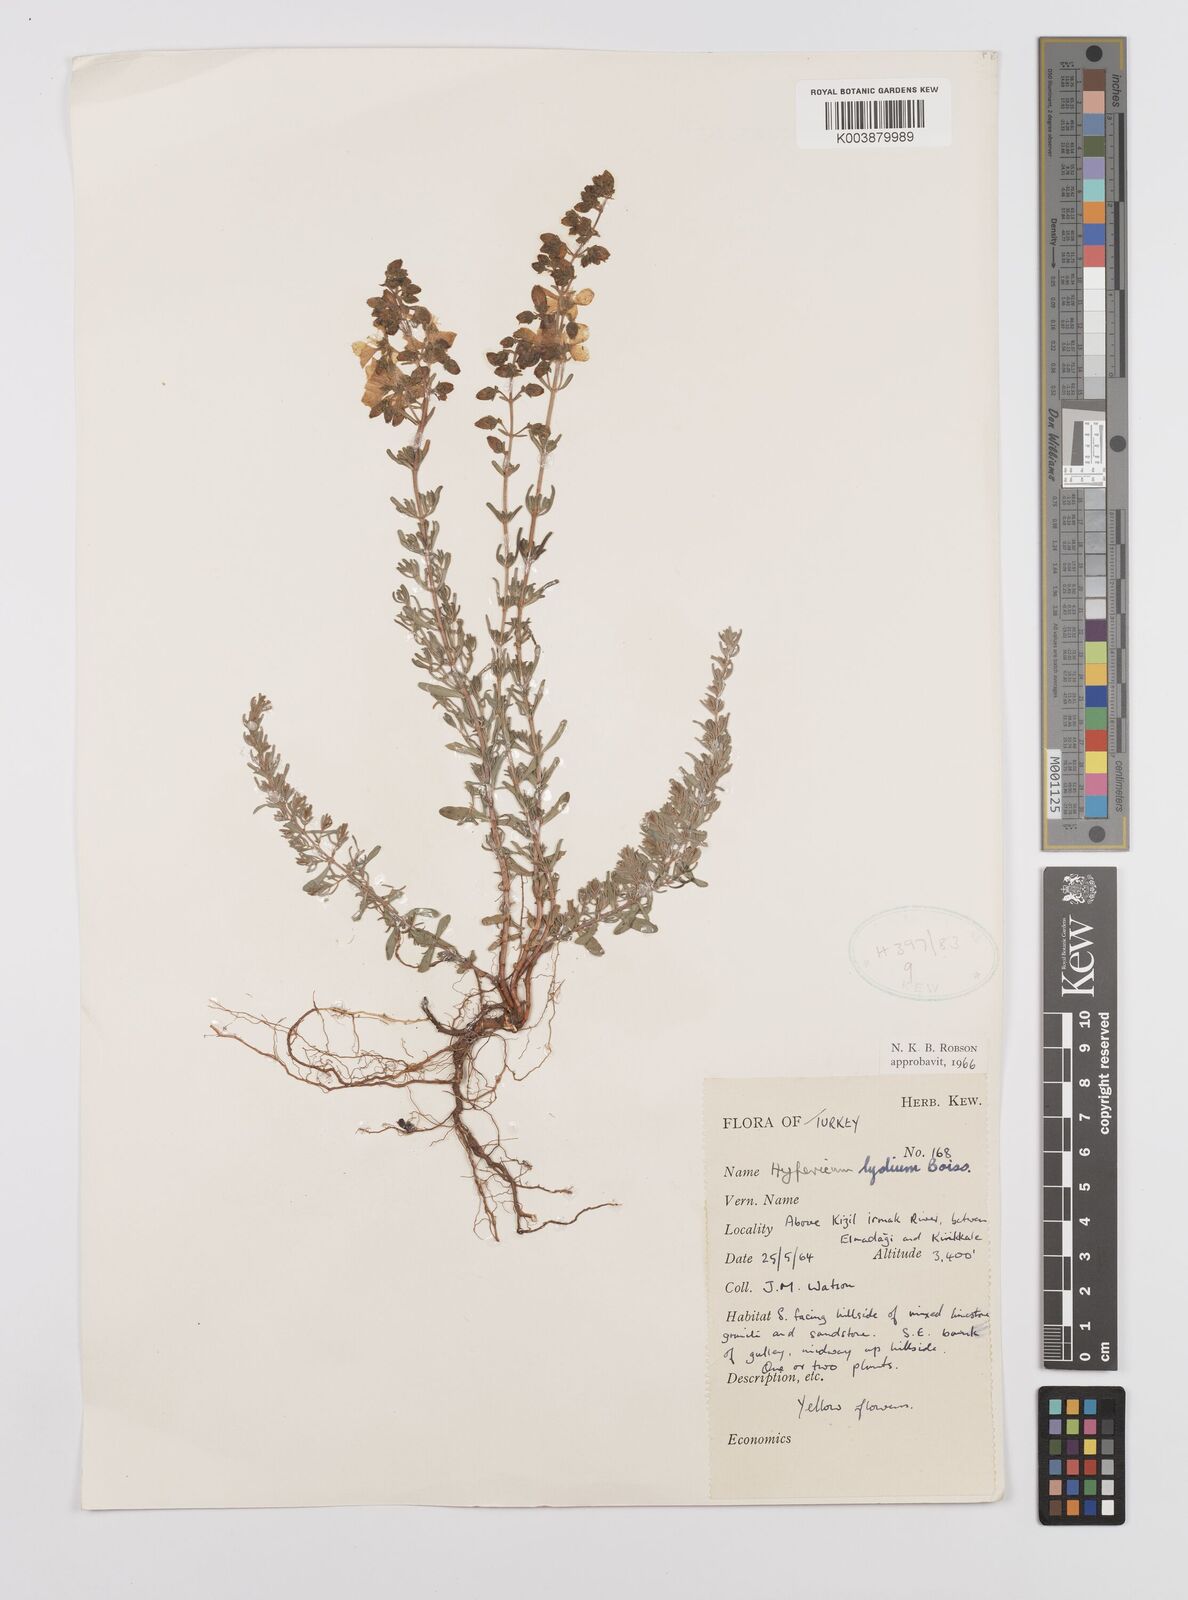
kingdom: Plantae
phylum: Tracheophyta
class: Magnoliopsida
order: Malpighiales
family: Hypericaceae
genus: Hypericum
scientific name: Hypericum lydium
